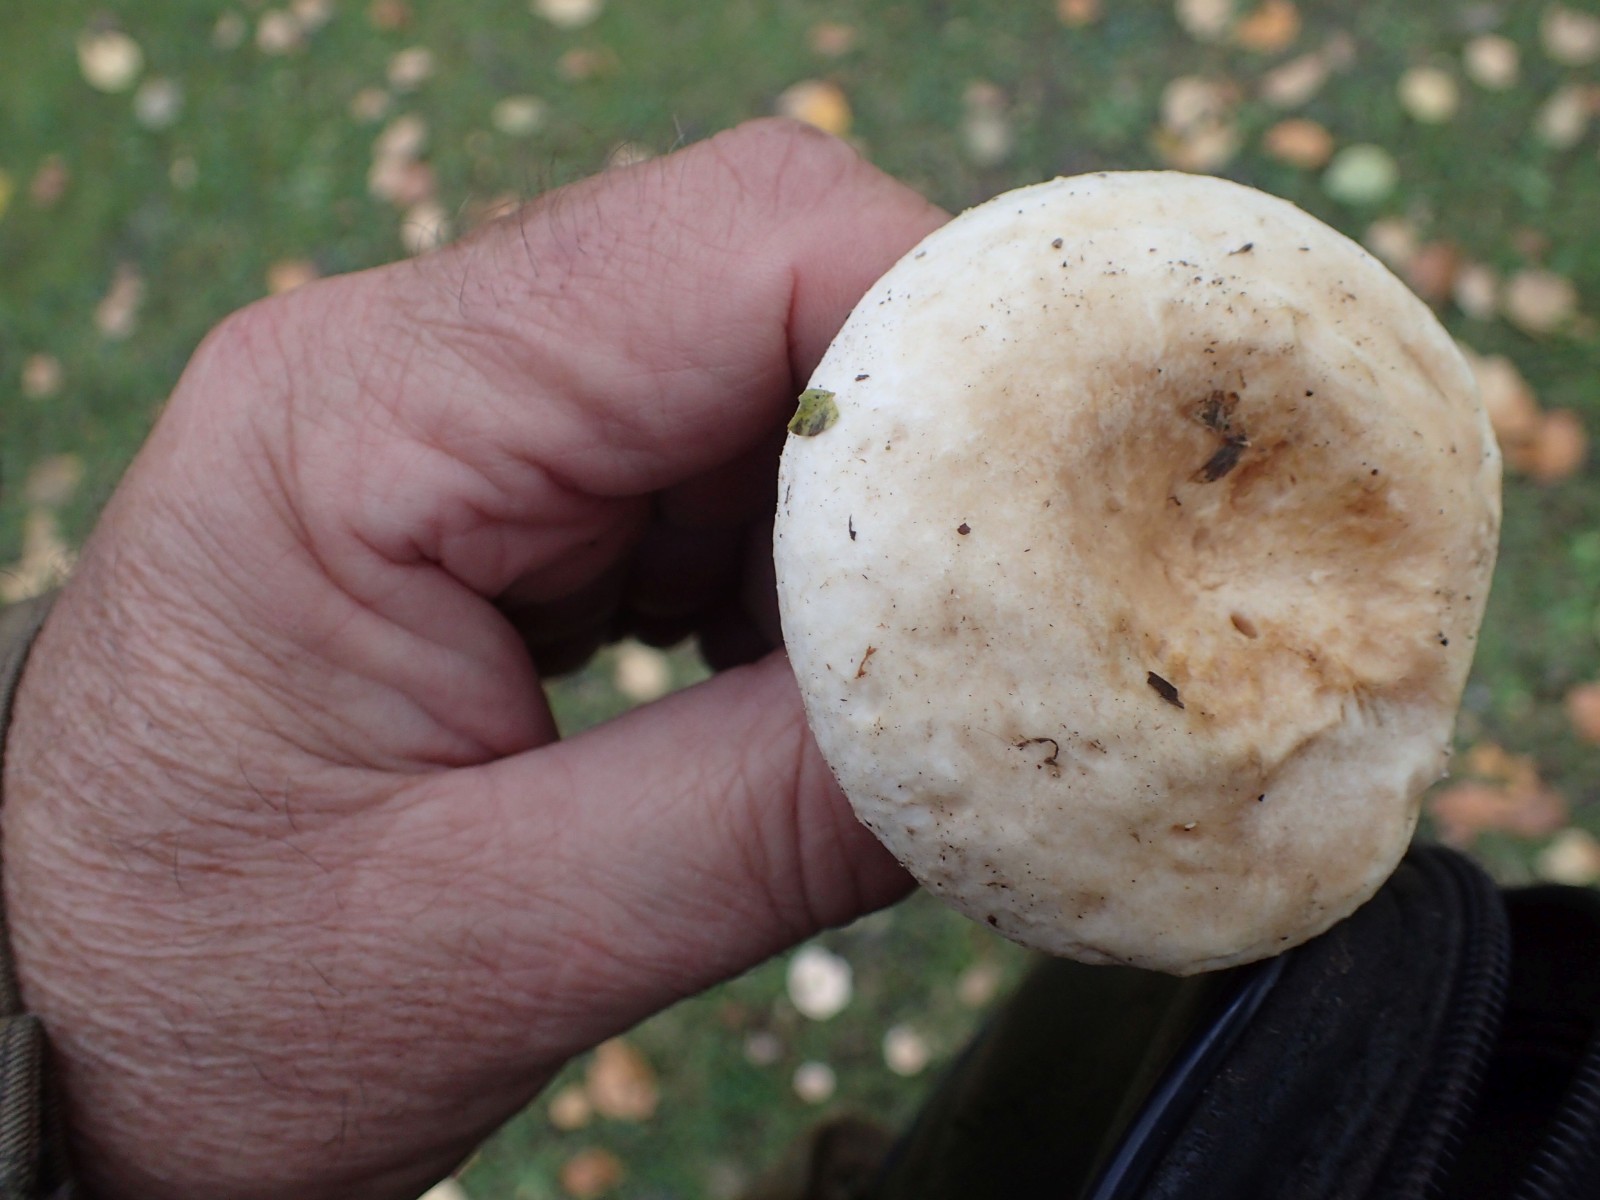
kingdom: Fungi
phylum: Basidiomycota
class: Agaricomycetes
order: Russulales
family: Russulaceae
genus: Lactarius
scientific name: Lactarius pubescens
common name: dunet mælkehat
